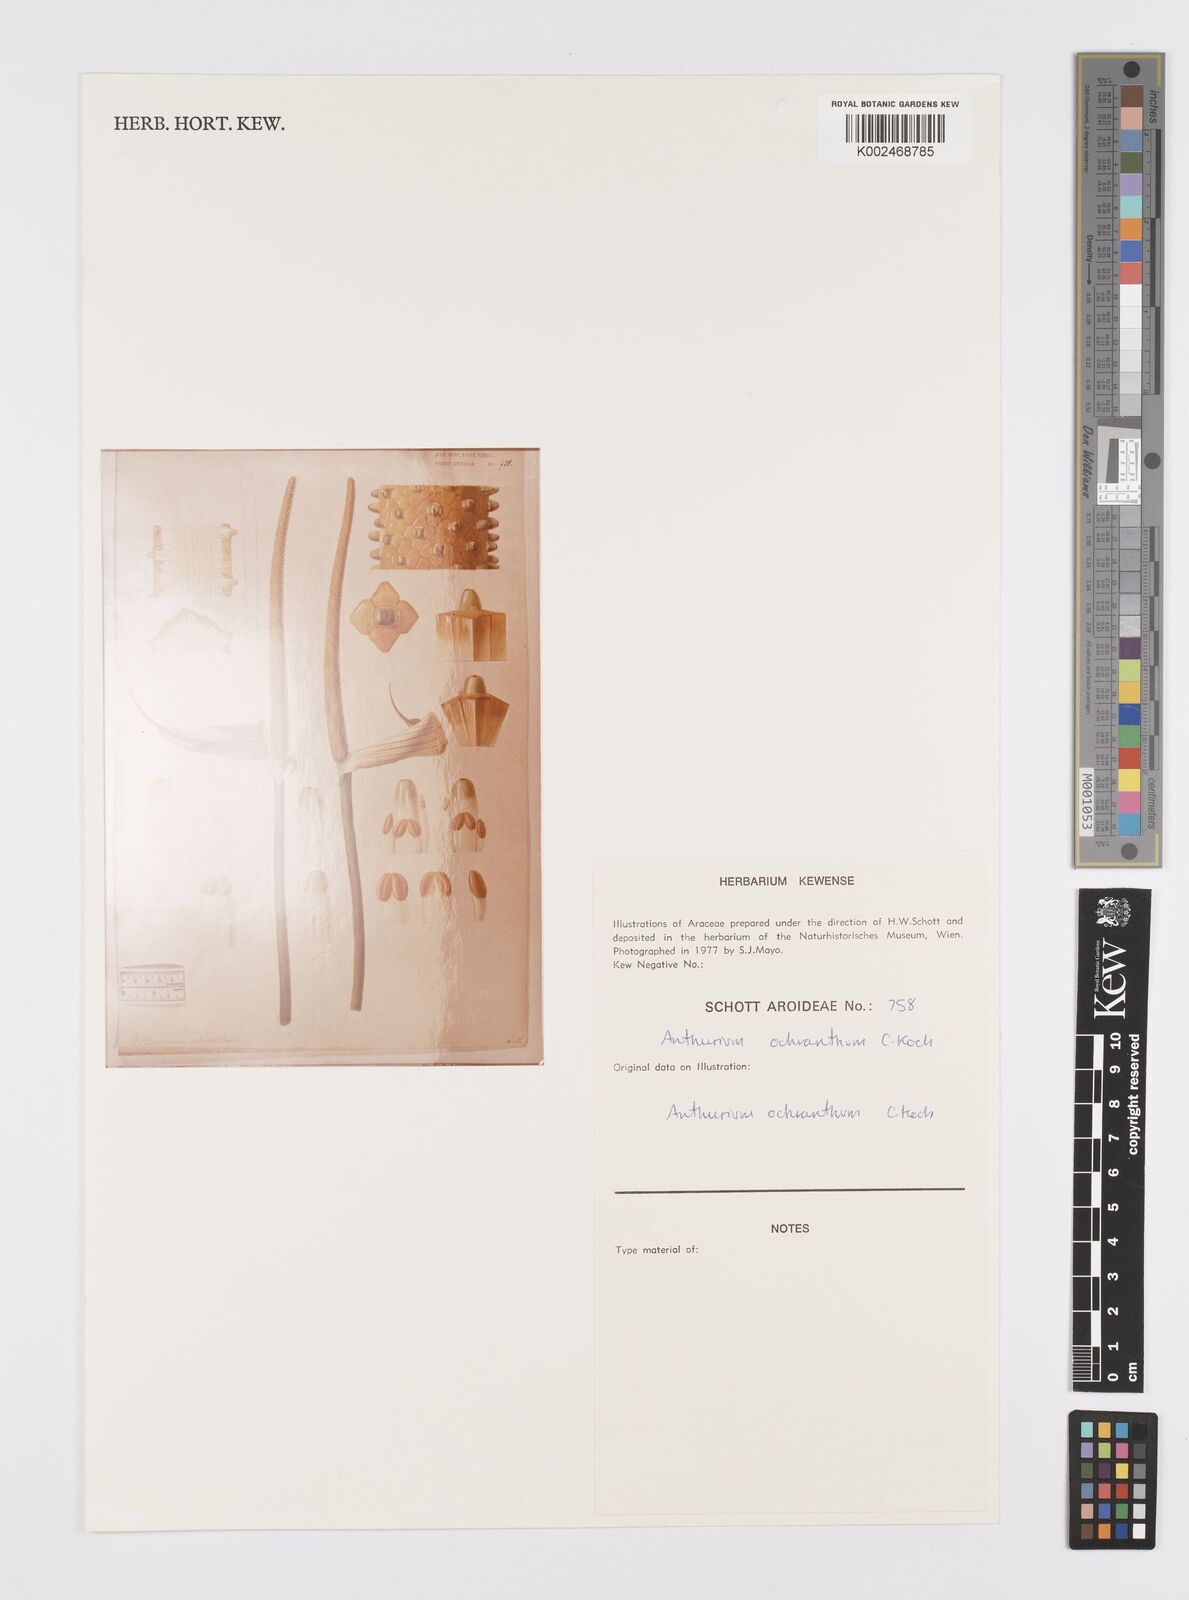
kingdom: Plantae
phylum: Tracheophyta
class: Liliopsida
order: Alismatales
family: Araceae
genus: Anthurium
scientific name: Anthurium ochranthum
